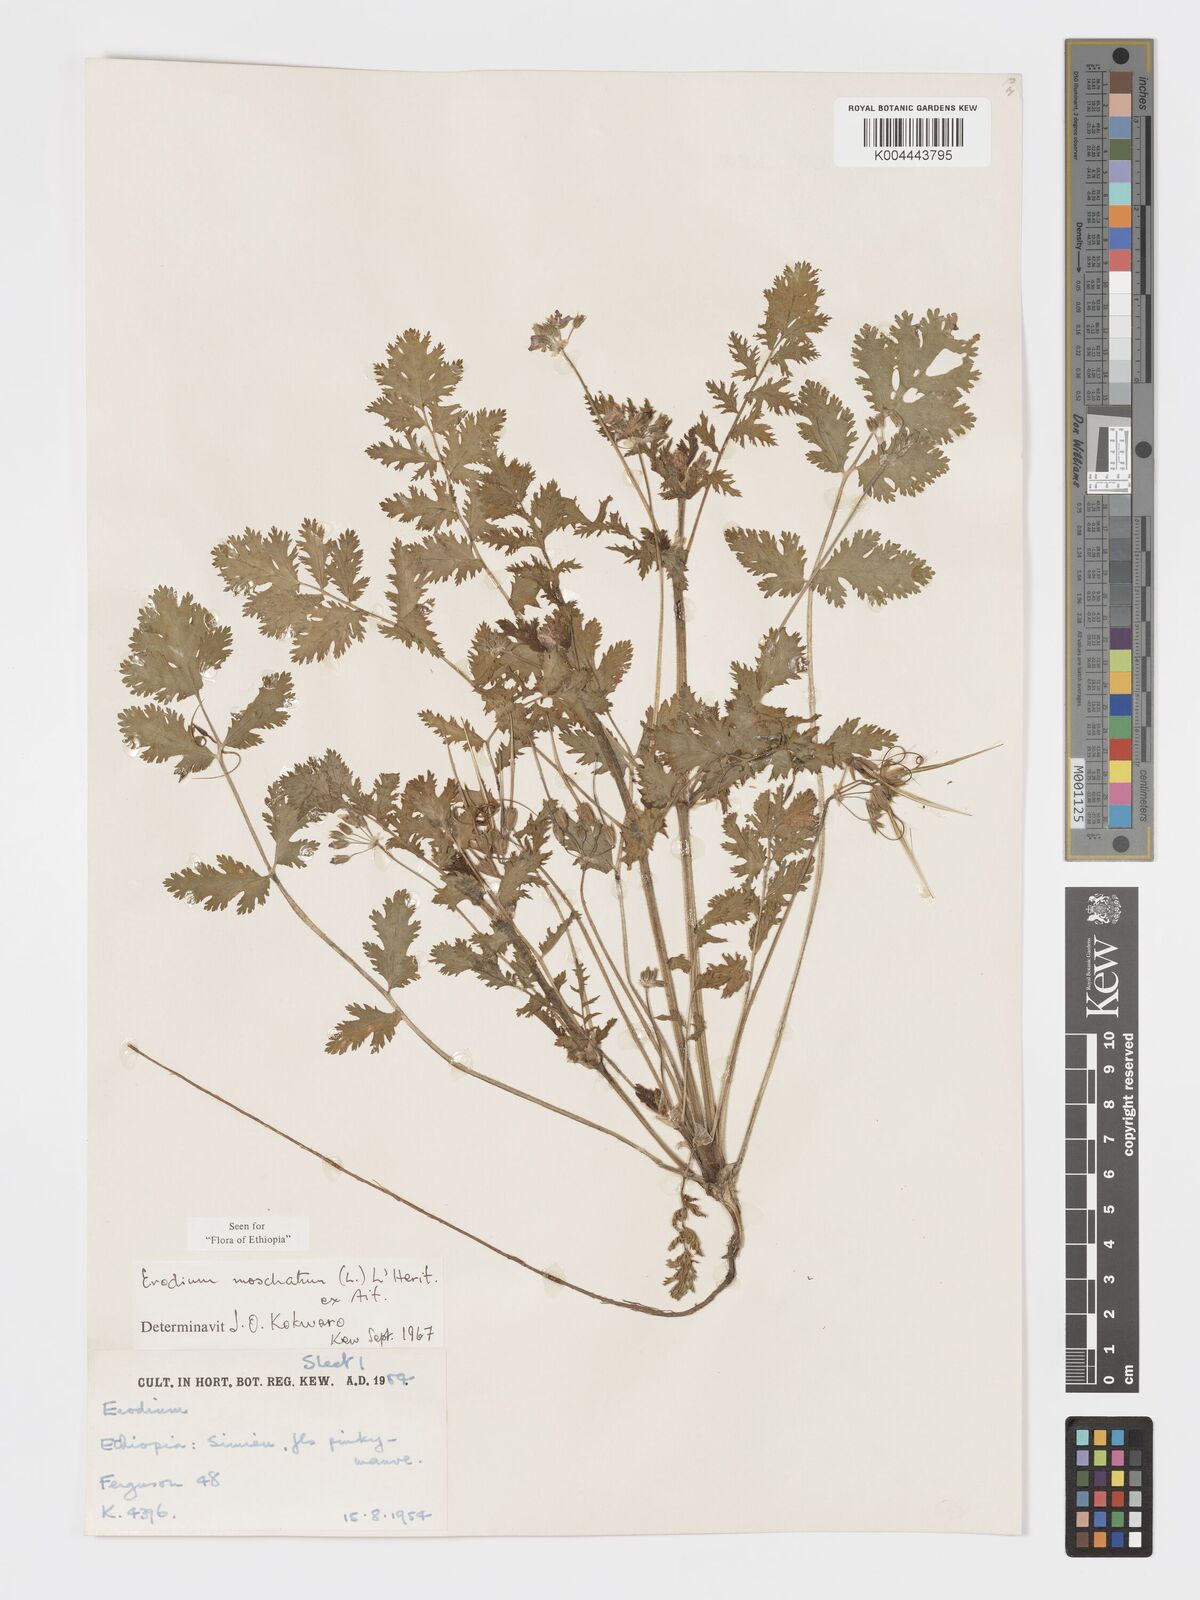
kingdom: Plantae
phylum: Tracheophyta
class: Magnoliopsida
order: Geraniales
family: Geraniaceae
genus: Erodium
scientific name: Erodium moschatum
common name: Musk stork's-bill
